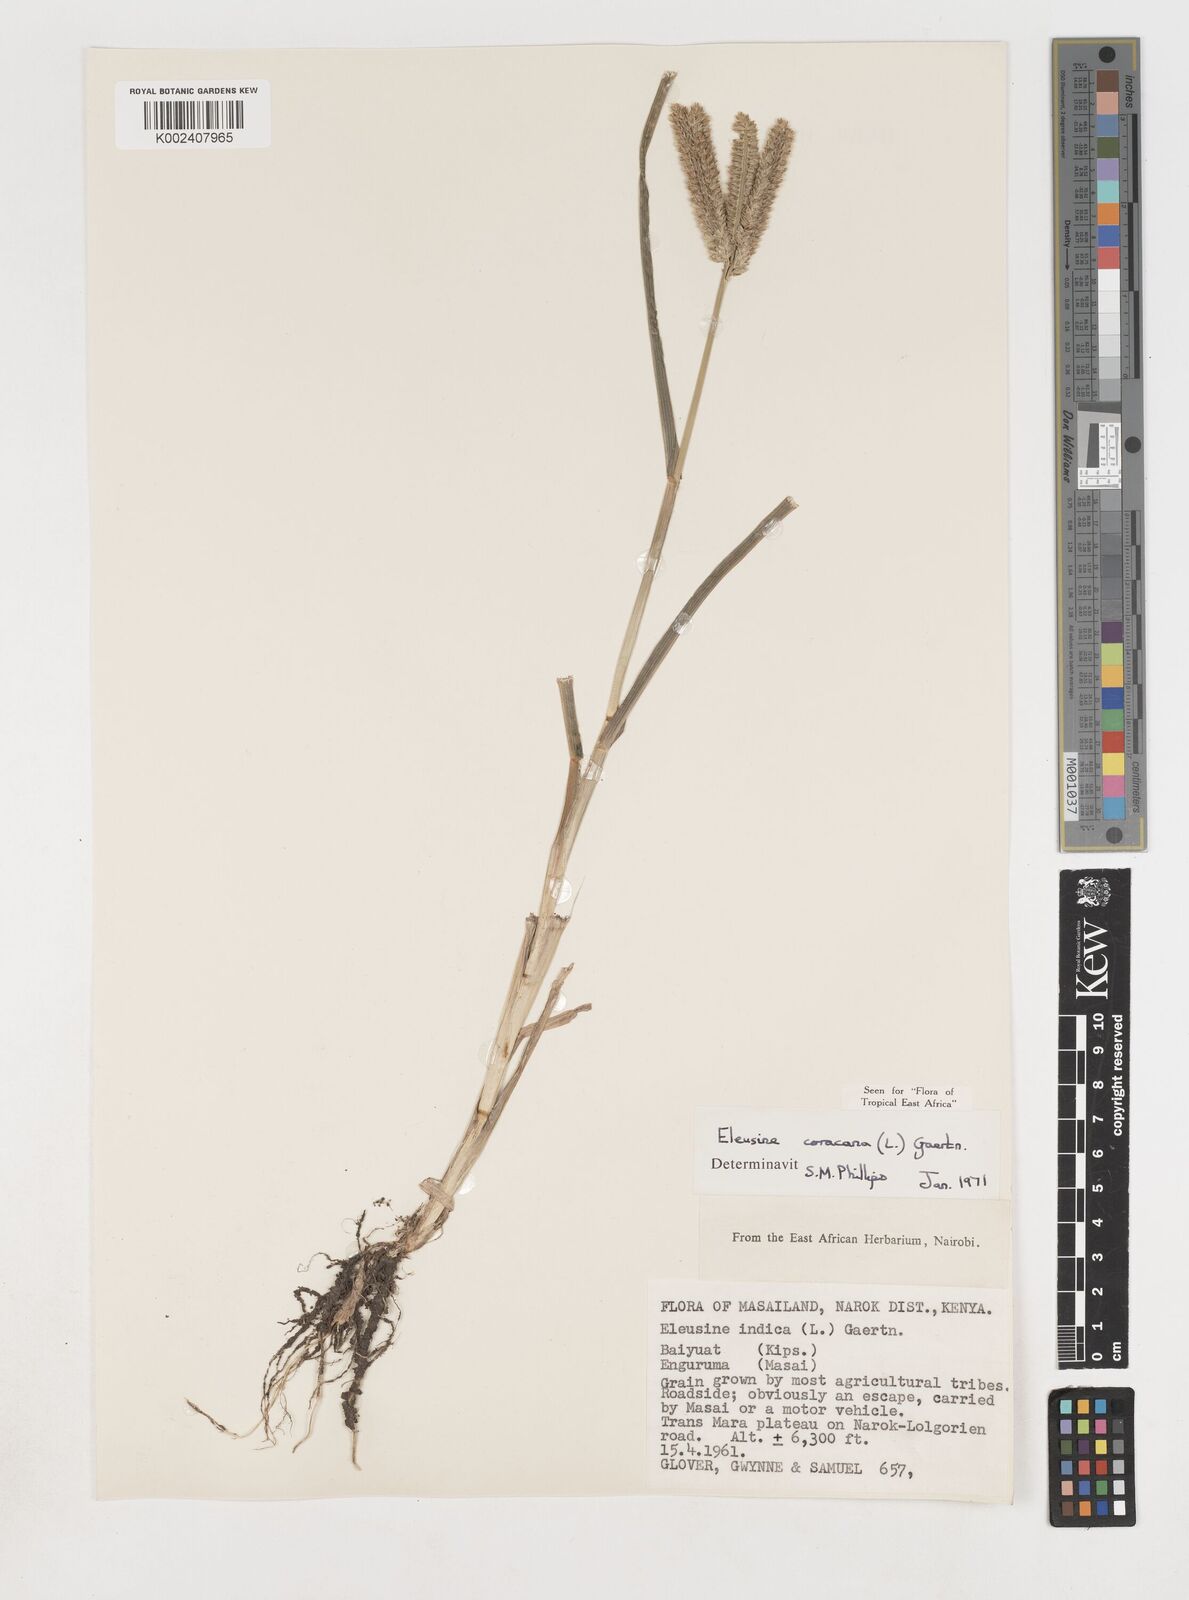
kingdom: Plantae
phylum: Tracheophyta
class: Liliopsida
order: Poales
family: Poaceae
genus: Eleusine
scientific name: Eleusine coracana
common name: Finger millet
